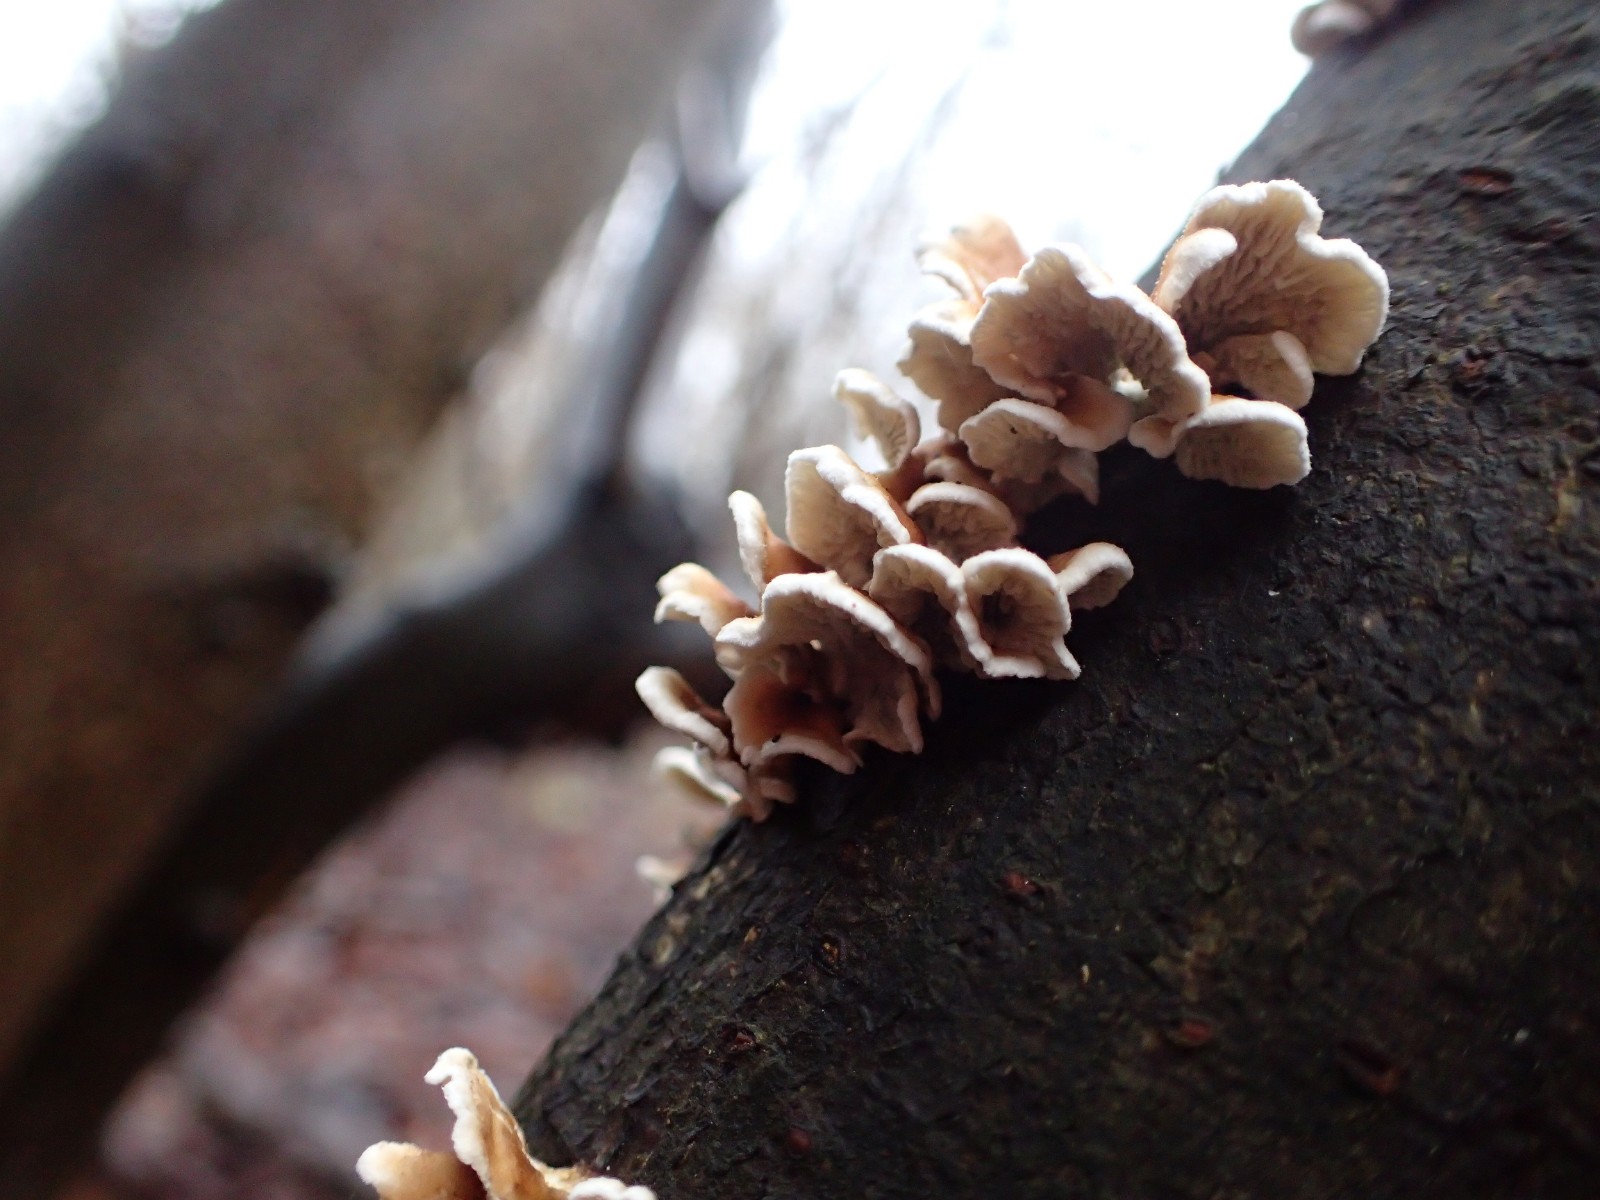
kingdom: Fungi
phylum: Basidiomycota
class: Agaricomycetes
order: Amylocorticiales
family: Amylocorticiaceae
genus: Plicaturopsis
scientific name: Plicaturopsis crispa
